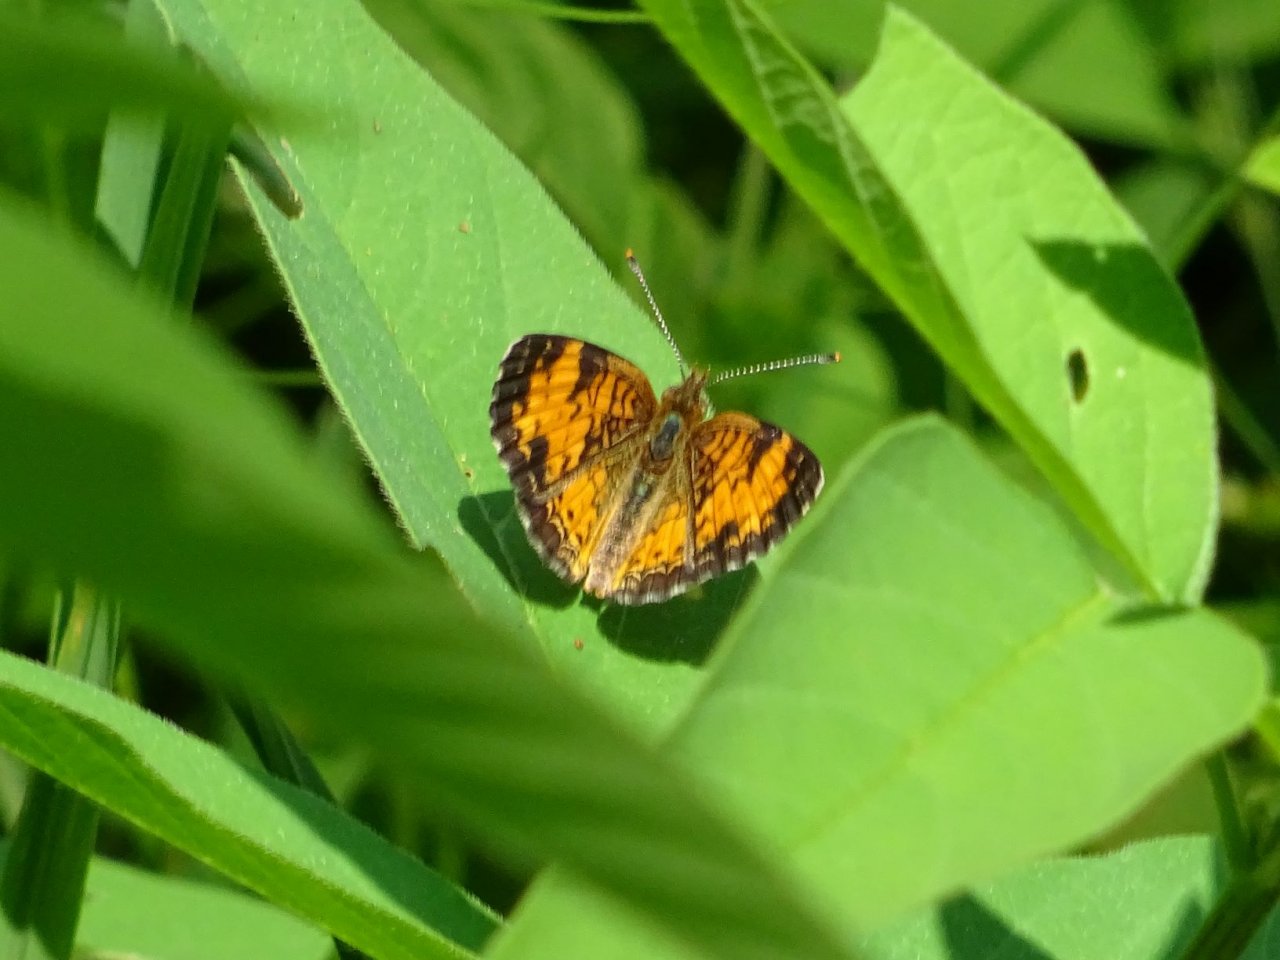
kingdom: Animalia
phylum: Arthropoda
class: Insecta
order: Lepidoptera
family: Nymphalidae
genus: Phyciodes
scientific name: Phyciodes tharos
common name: Northern Crescent
